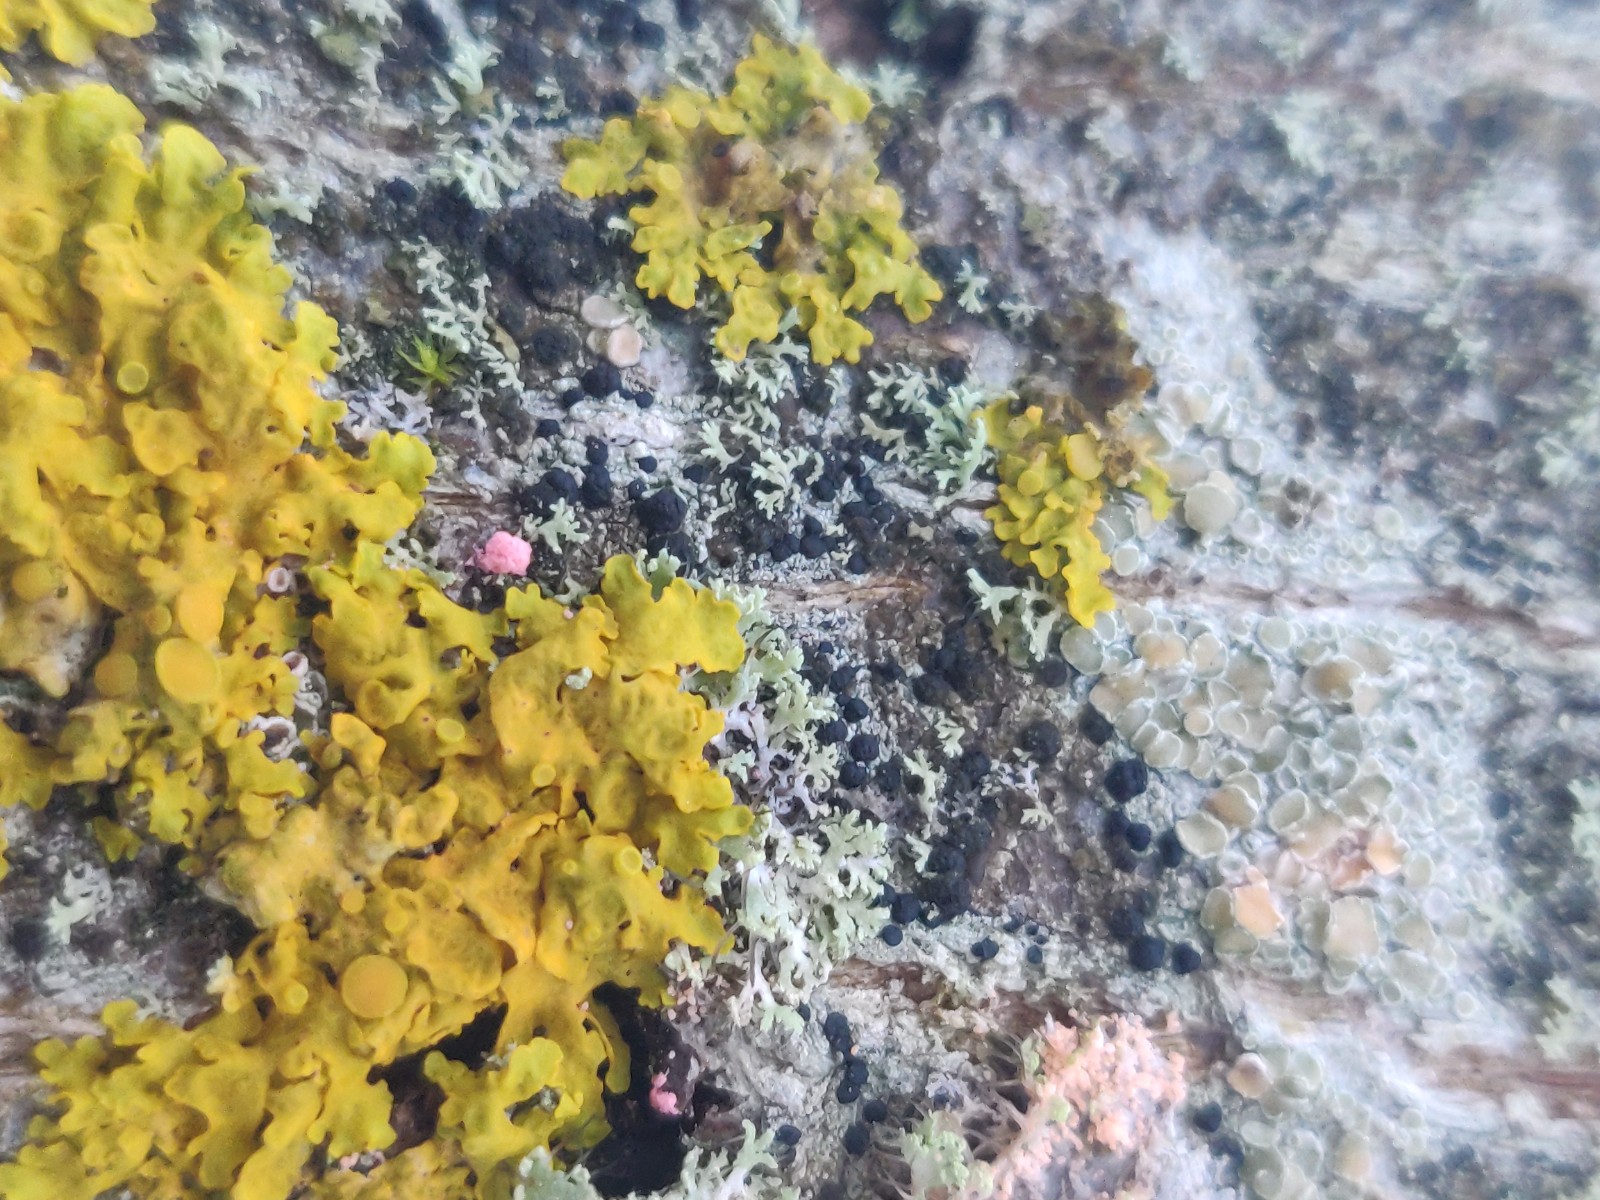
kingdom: Fungi
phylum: Ascomycota
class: Sordariomycetes
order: Hypocreales
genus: Illosporiopsis
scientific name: Illosporiopsis christiansenii
